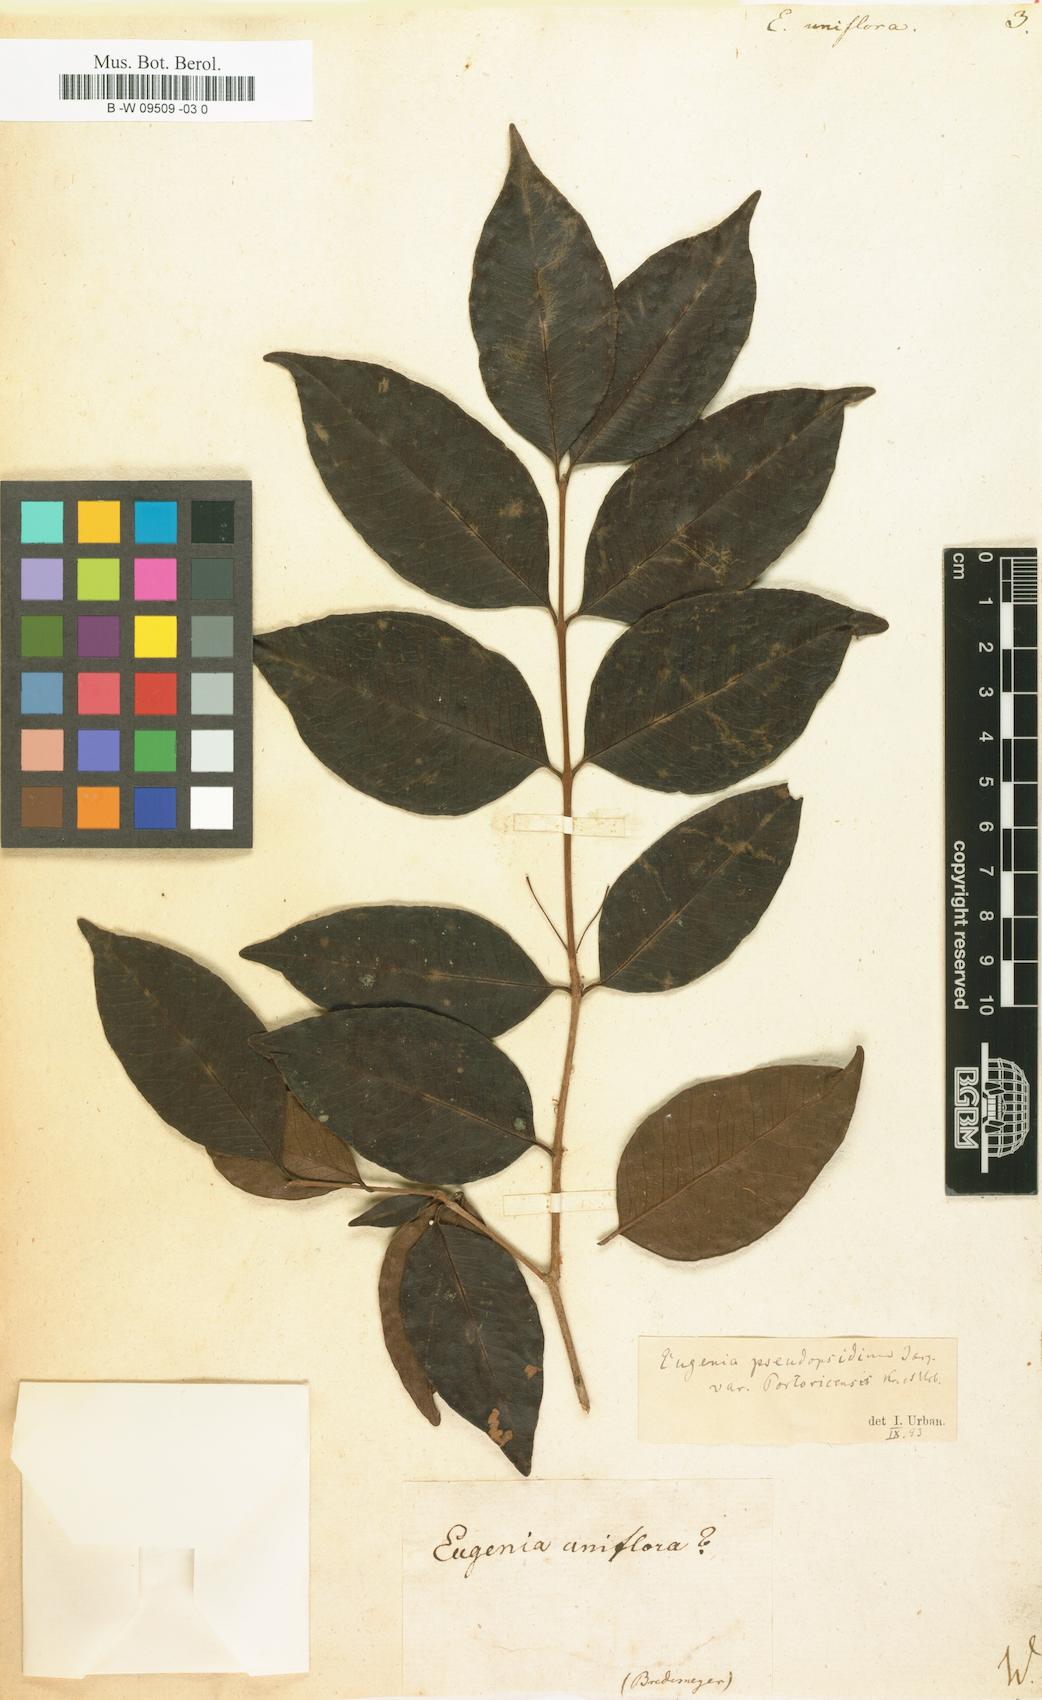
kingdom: Plantae
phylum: Tracheophyta
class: Magnoliopsida
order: Myrtales
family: Myrtaceae
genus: Eugenia
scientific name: Eugenia uniflora
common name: Surinam cherry
